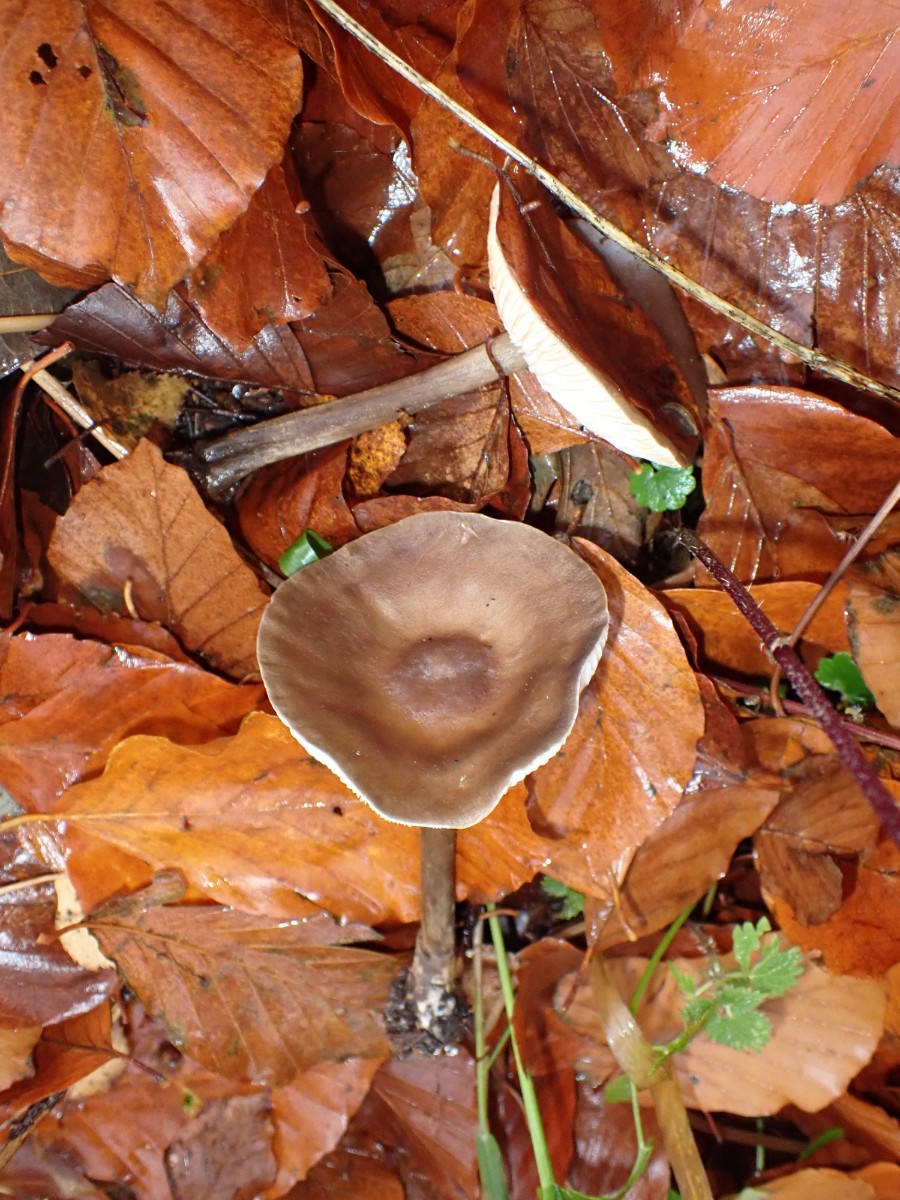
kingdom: Fungi
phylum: Basidiomycota
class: Agaricomycetes
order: Agaricales
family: Tricholomataceae
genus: Melanoleuca
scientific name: Melanoleuca
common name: munkehat
